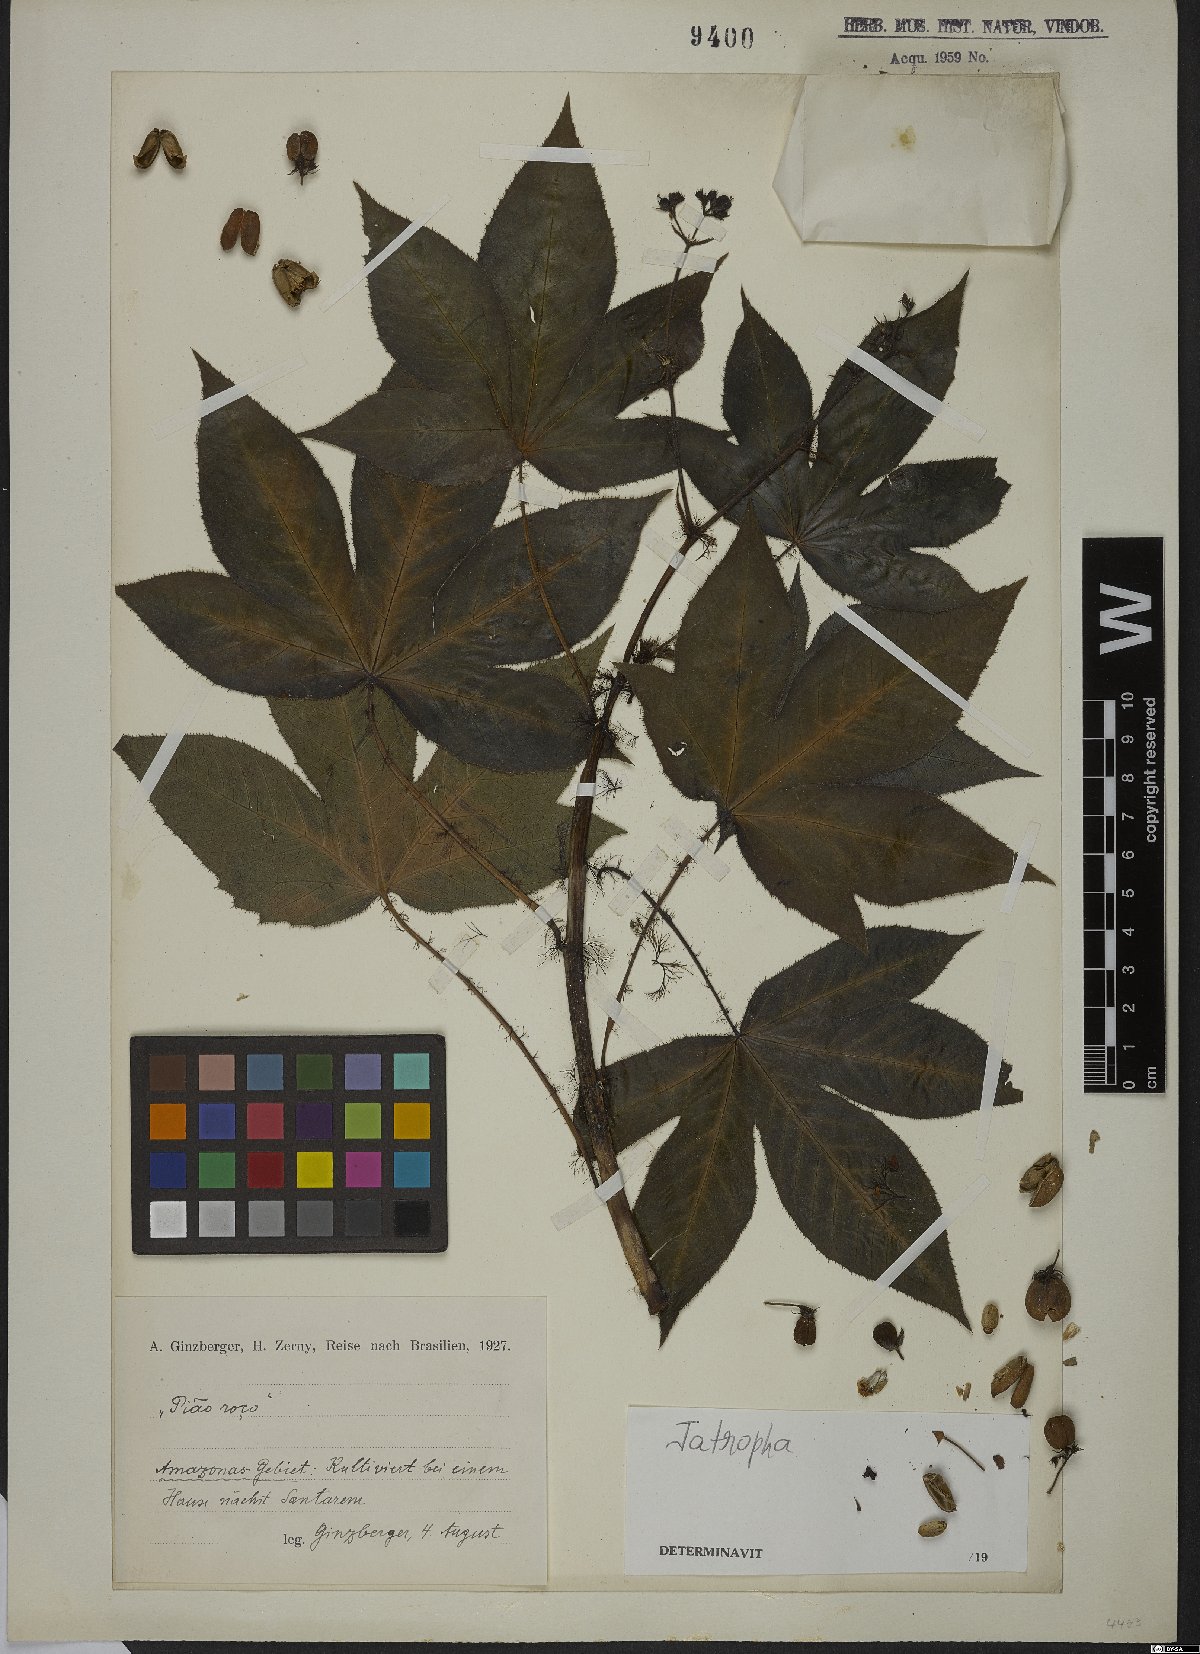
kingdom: Plantae
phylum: Tracheophyta
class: Magnoliopsida
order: Malpighiales
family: Euphorbiaceae
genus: Jatropha
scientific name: Jatropha
